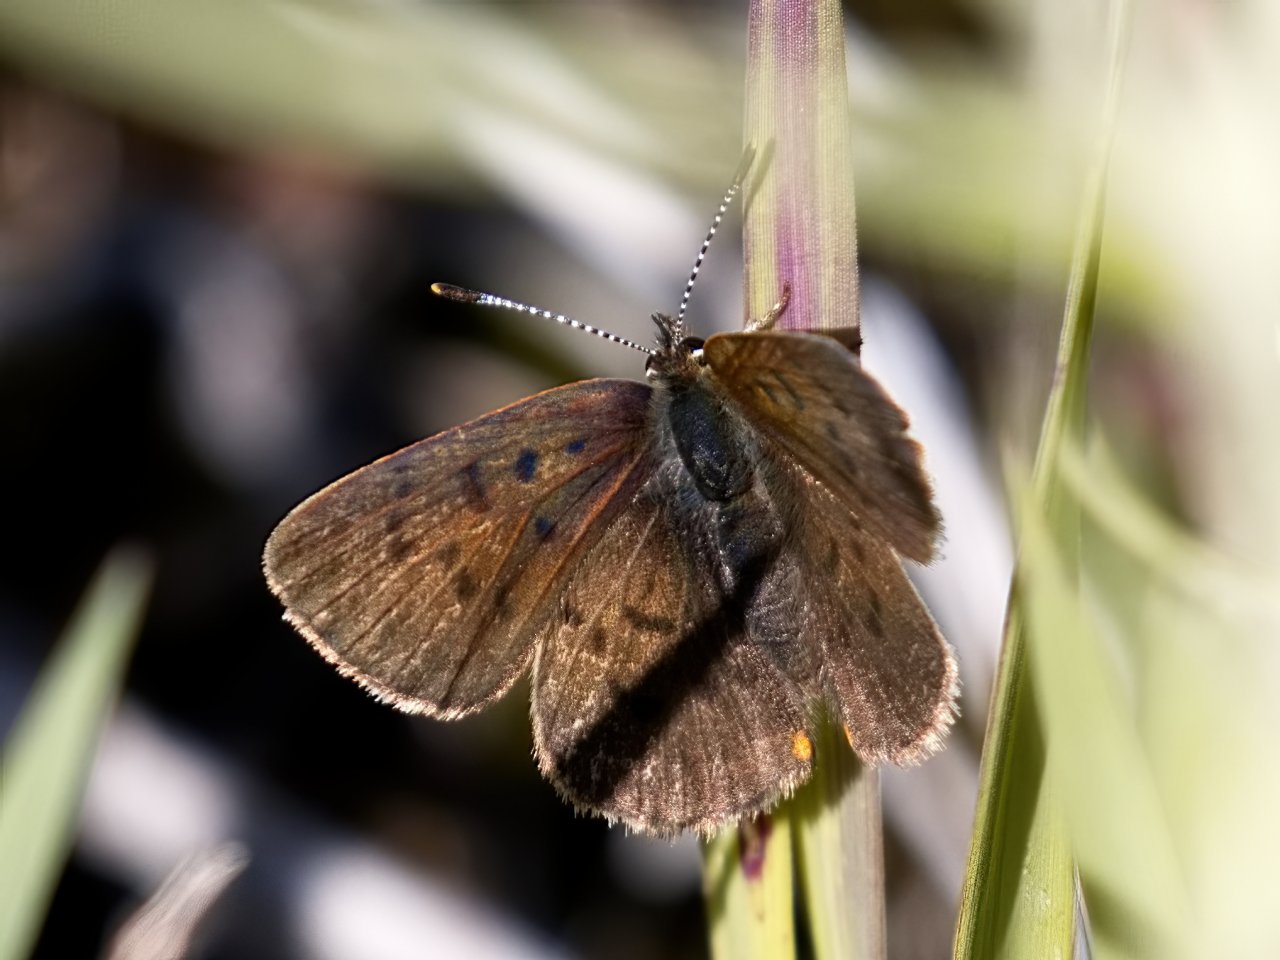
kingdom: Animalia
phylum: Arthropoda
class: Insecta
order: Lepidoptera
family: Lycaenidae
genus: Epidemia
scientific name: Epidemia dorcas
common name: Dorcas Copper
